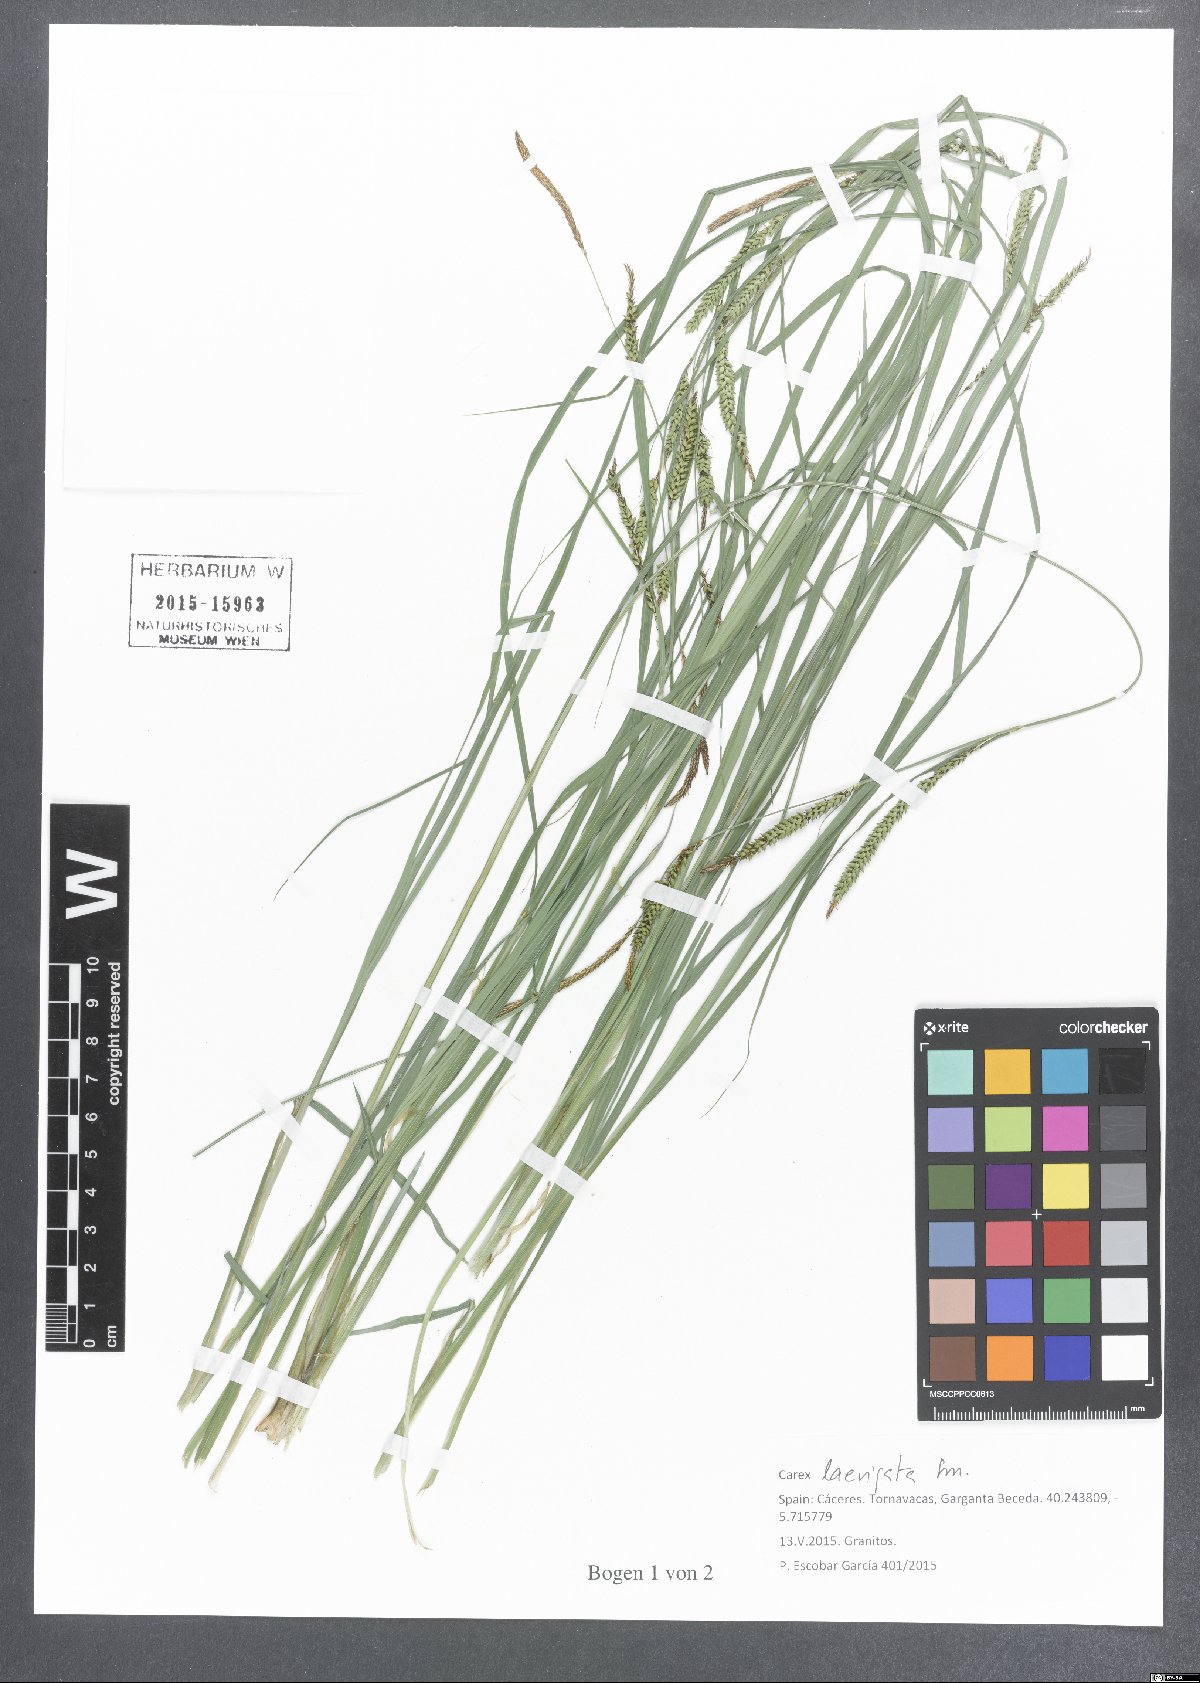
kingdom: Plantae
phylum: Tracheophyta
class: Liliopsida
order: Poales
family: Cyperaceae
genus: Carex
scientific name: Carex acuta
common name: Slender tufted-sedge
